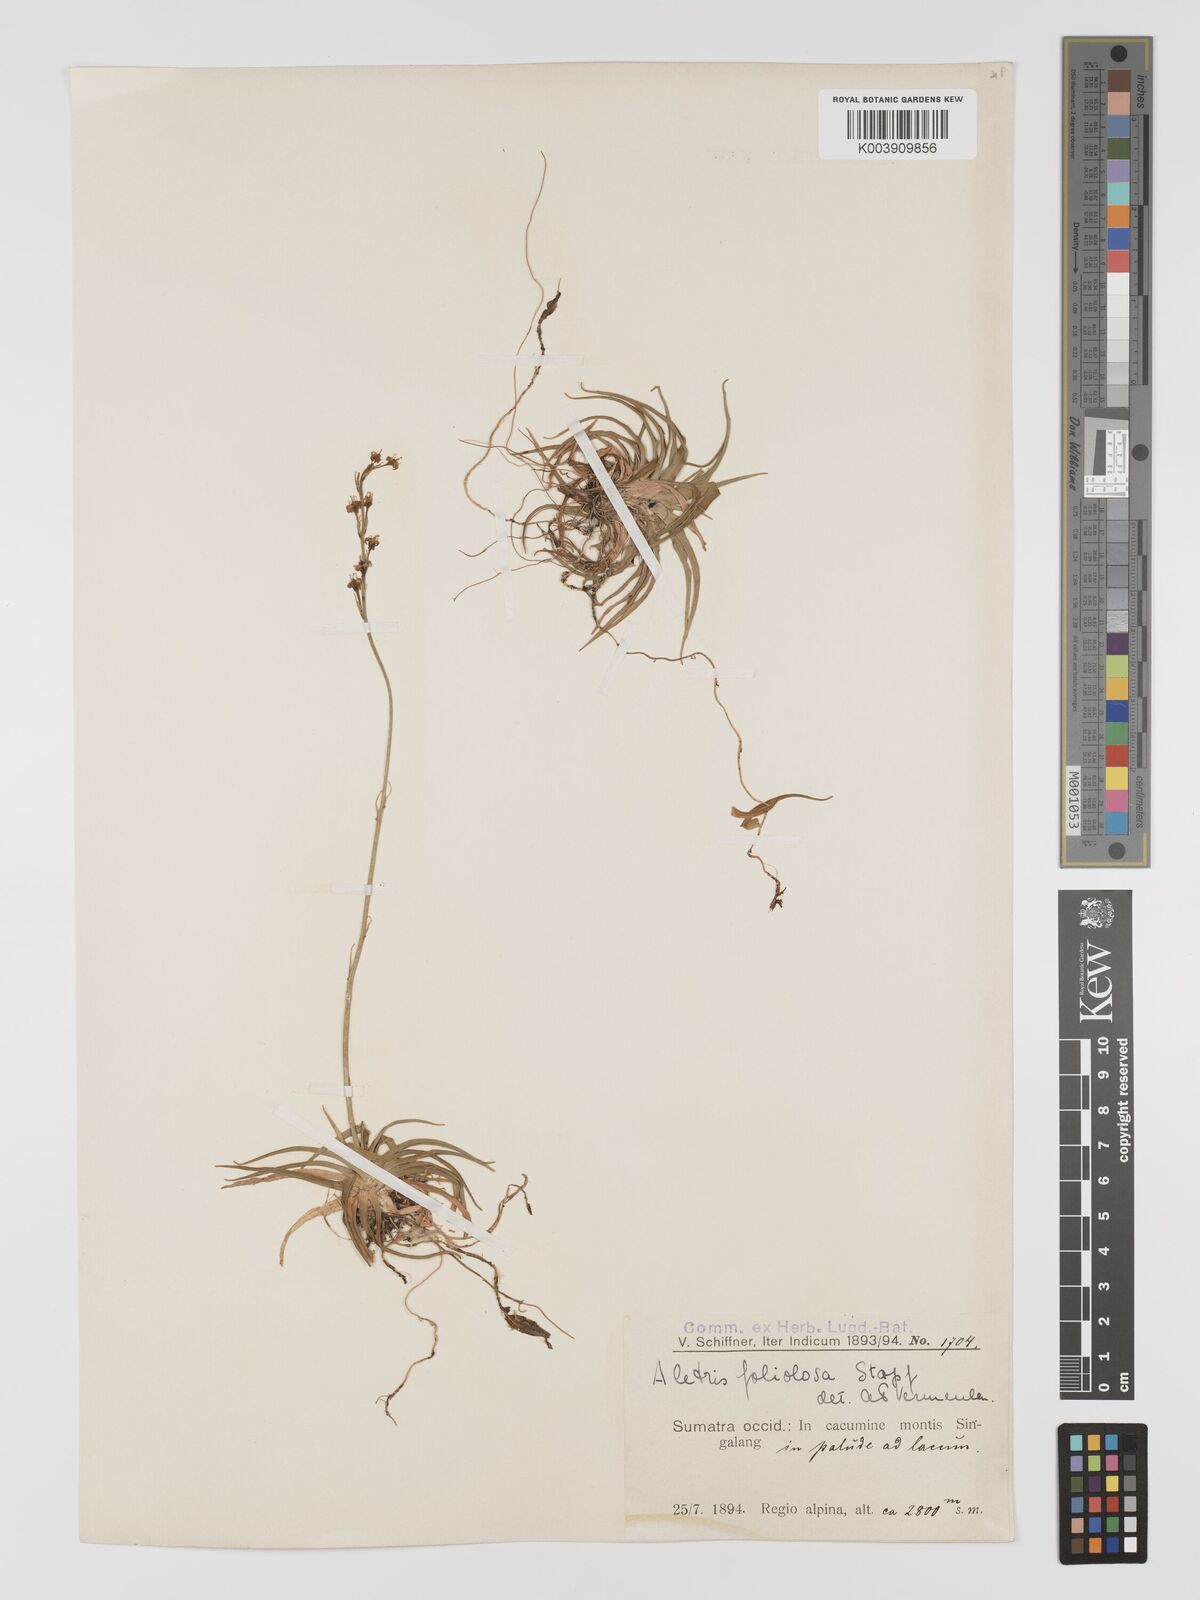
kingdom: Plantae
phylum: Tracheophyta
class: Liliopsida
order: Dioscoreales
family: Nartheciaceae
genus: Aletris
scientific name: Aletris foliolosa
